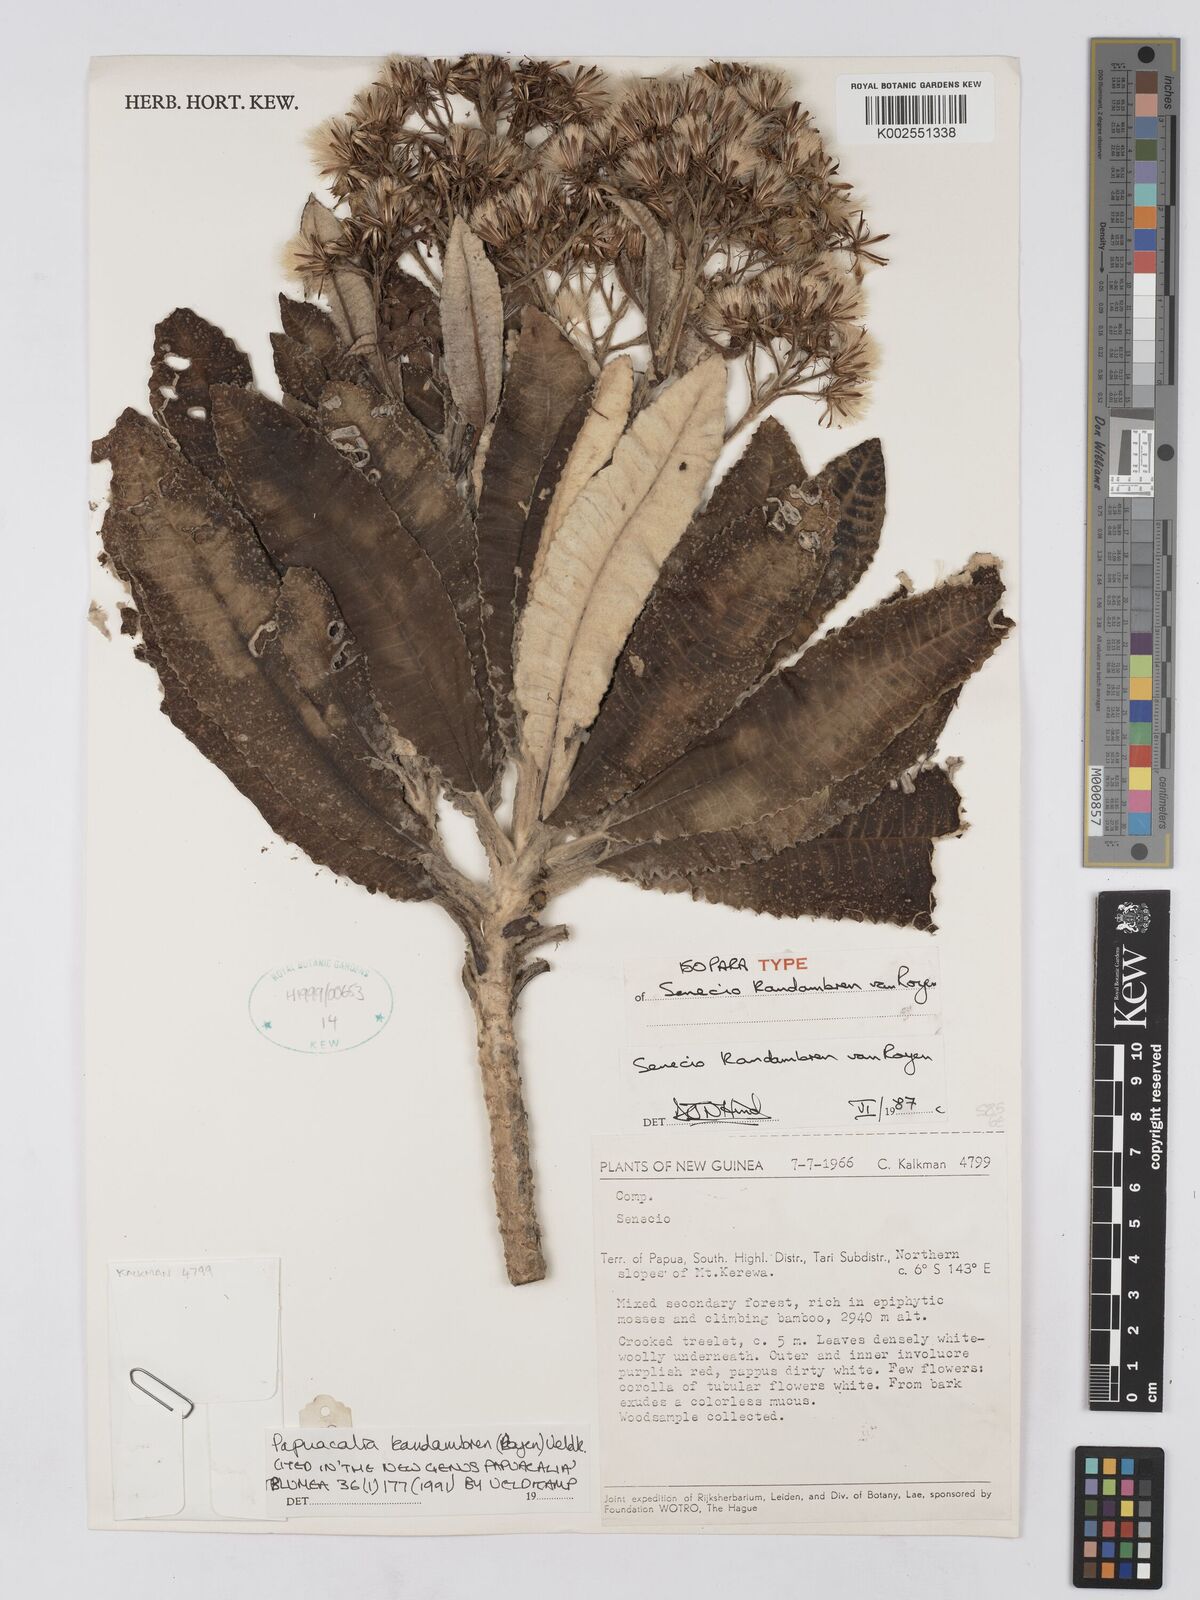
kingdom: Plantae
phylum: Tracheophyta
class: Magnoliopsida
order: Asterales
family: Asteraceae
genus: Papuacalia
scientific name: Papuacalia kandambren
